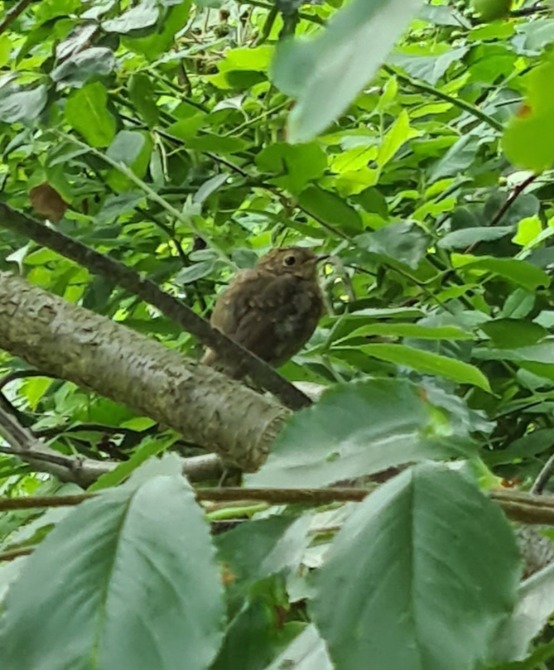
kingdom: Animalia
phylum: Chordata
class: Aves
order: Passeriformes
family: Muscicapidae
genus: Erithacus
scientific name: Erithacus rubecula
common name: Rødhals/rødkælk
